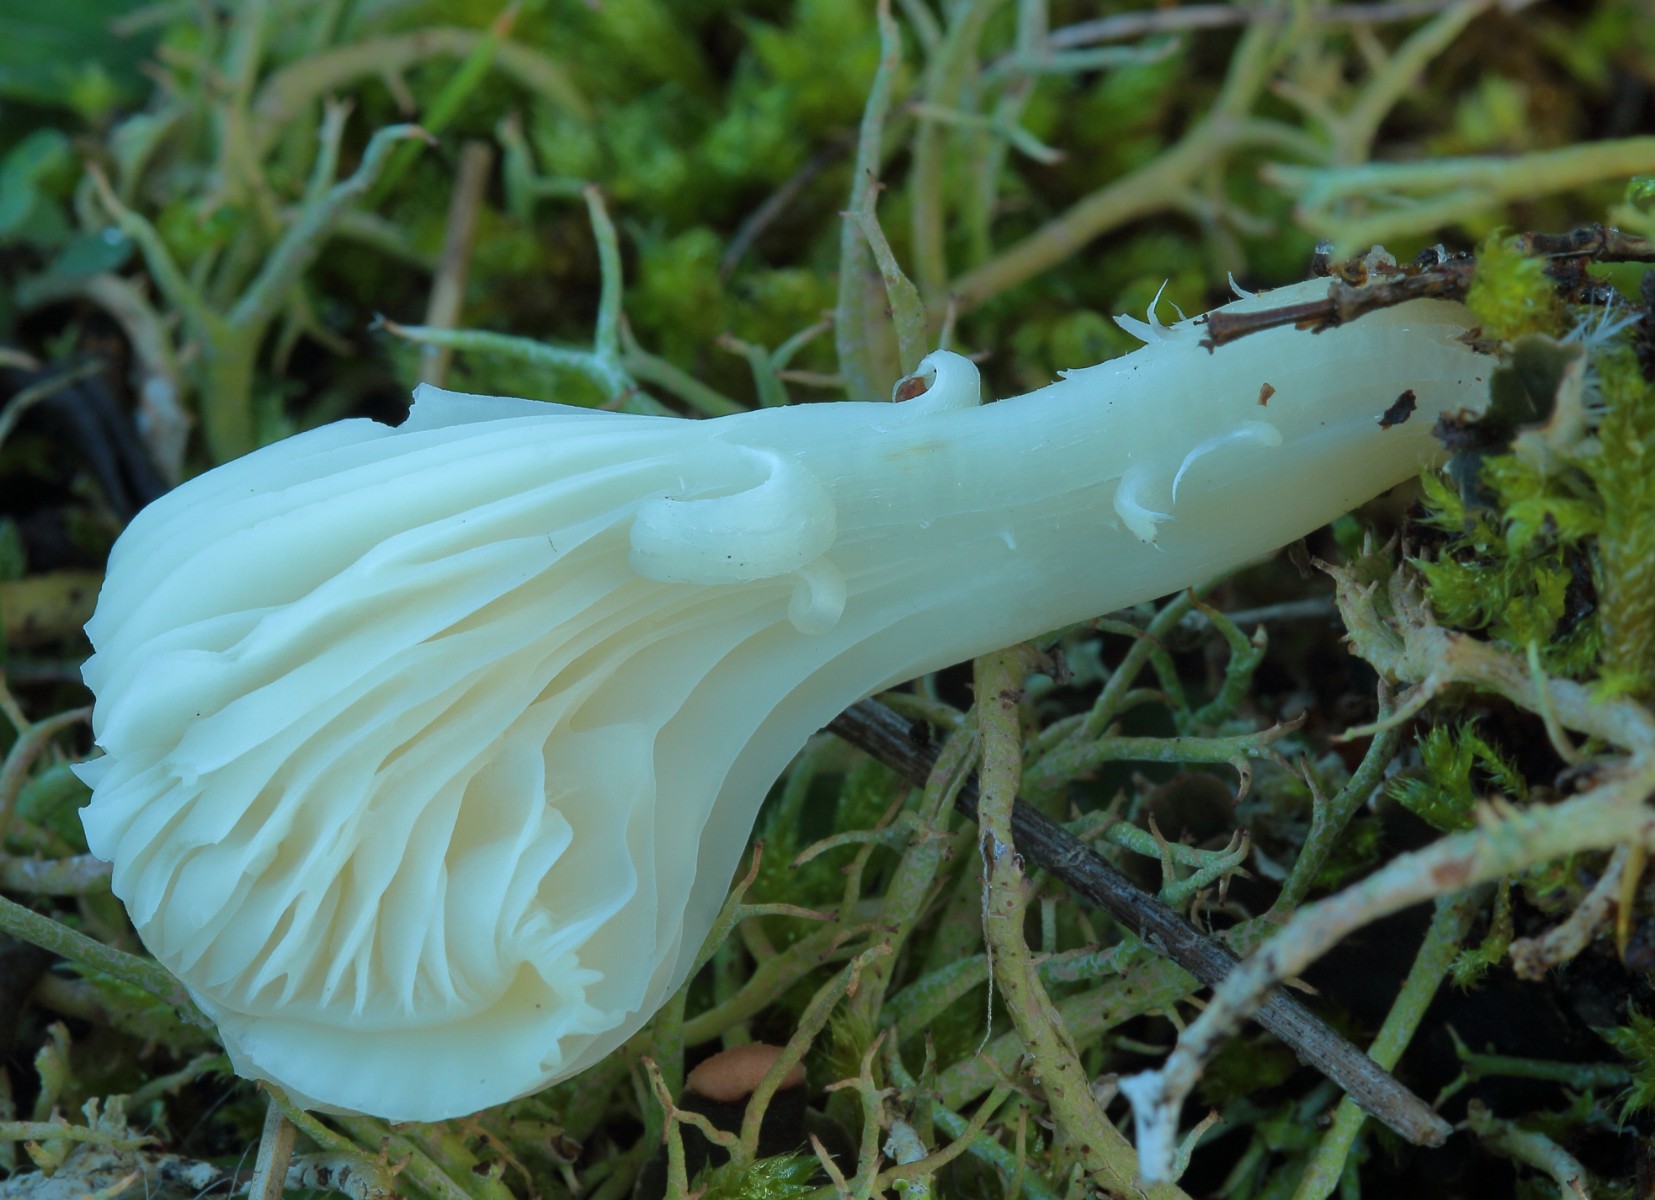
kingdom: Fungi
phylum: Basidiomycota
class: Agaricomycetes
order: Agaricales
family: Hygrophoraceae
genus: Cuphophyllus
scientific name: Cuphophyllus virgineus
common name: snehvid vokshat
